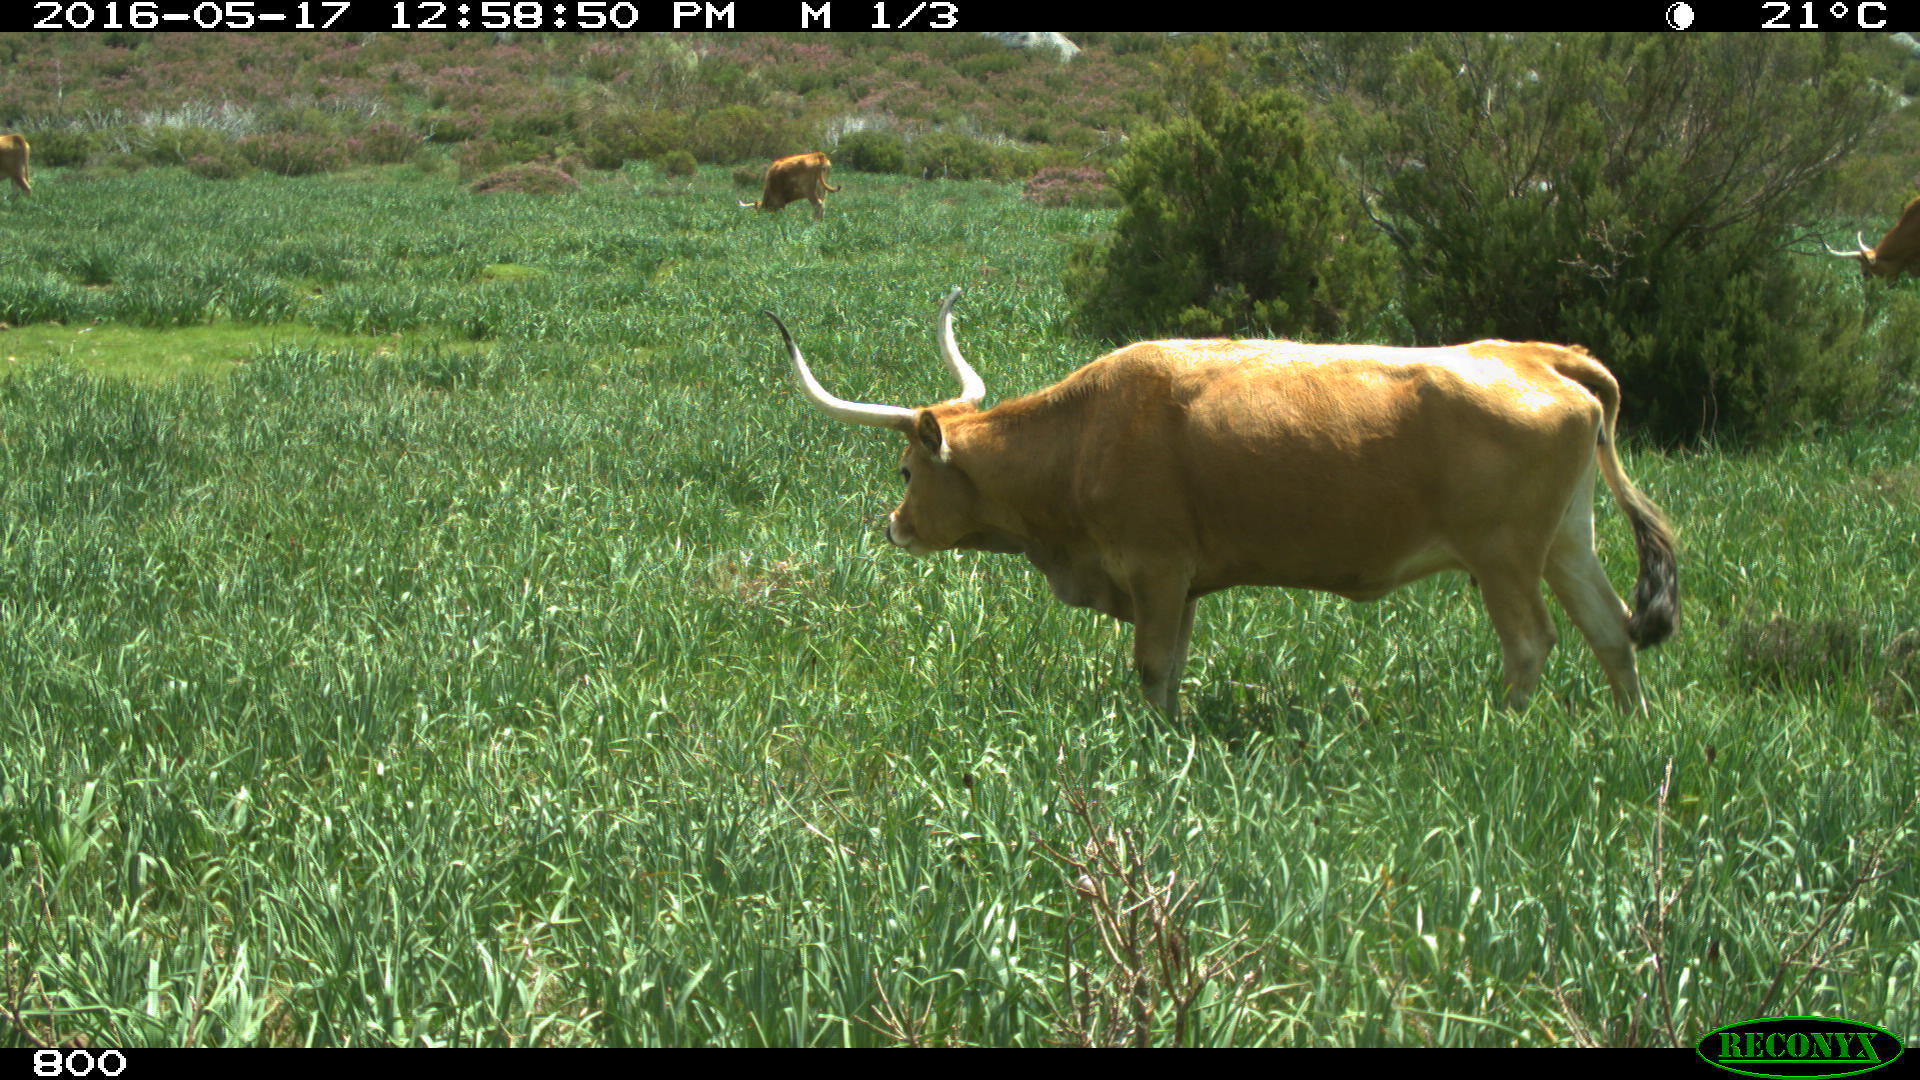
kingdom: Animalia
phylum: Chordata
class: Mammalia
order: Artiodactyla
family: Bovidae
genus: Bos
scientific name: Bos taurus
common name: Domesticated cattle
